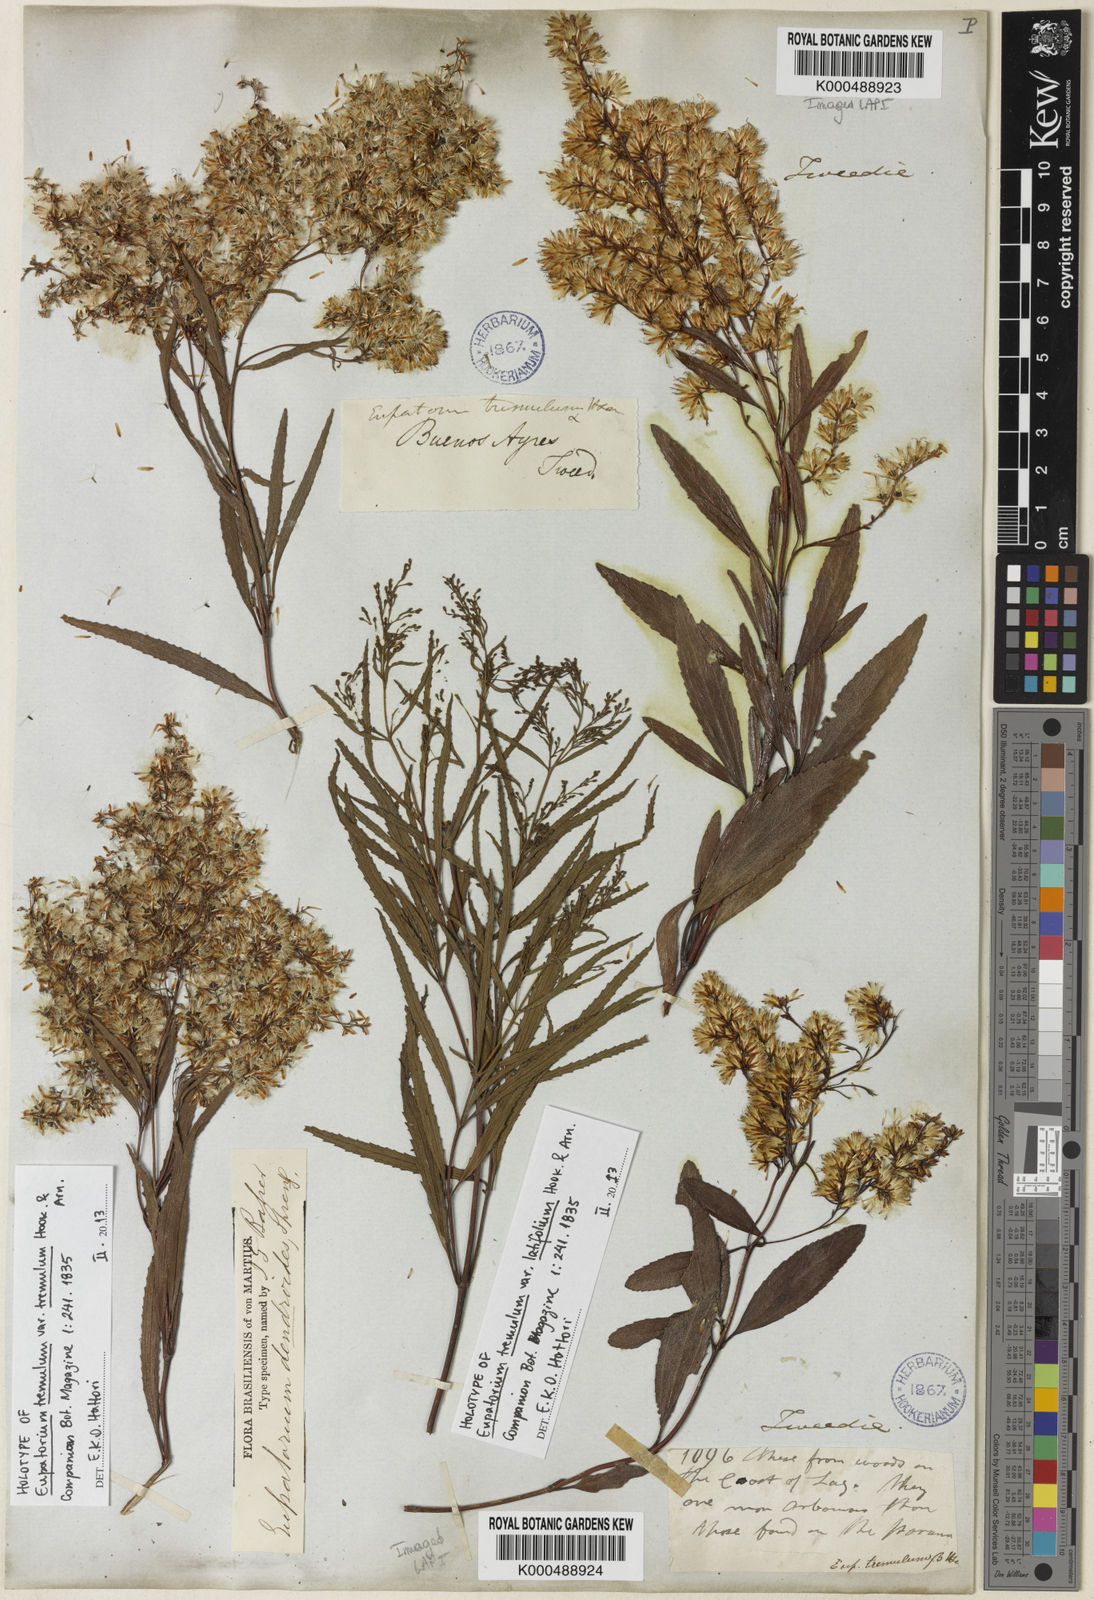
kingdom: Plantae
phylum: Tracheophyta
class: Magnoliopsida
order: Asterales
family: Asteraceae
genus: Raulinoreitzia
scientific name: Raulinoreitzia tremula
